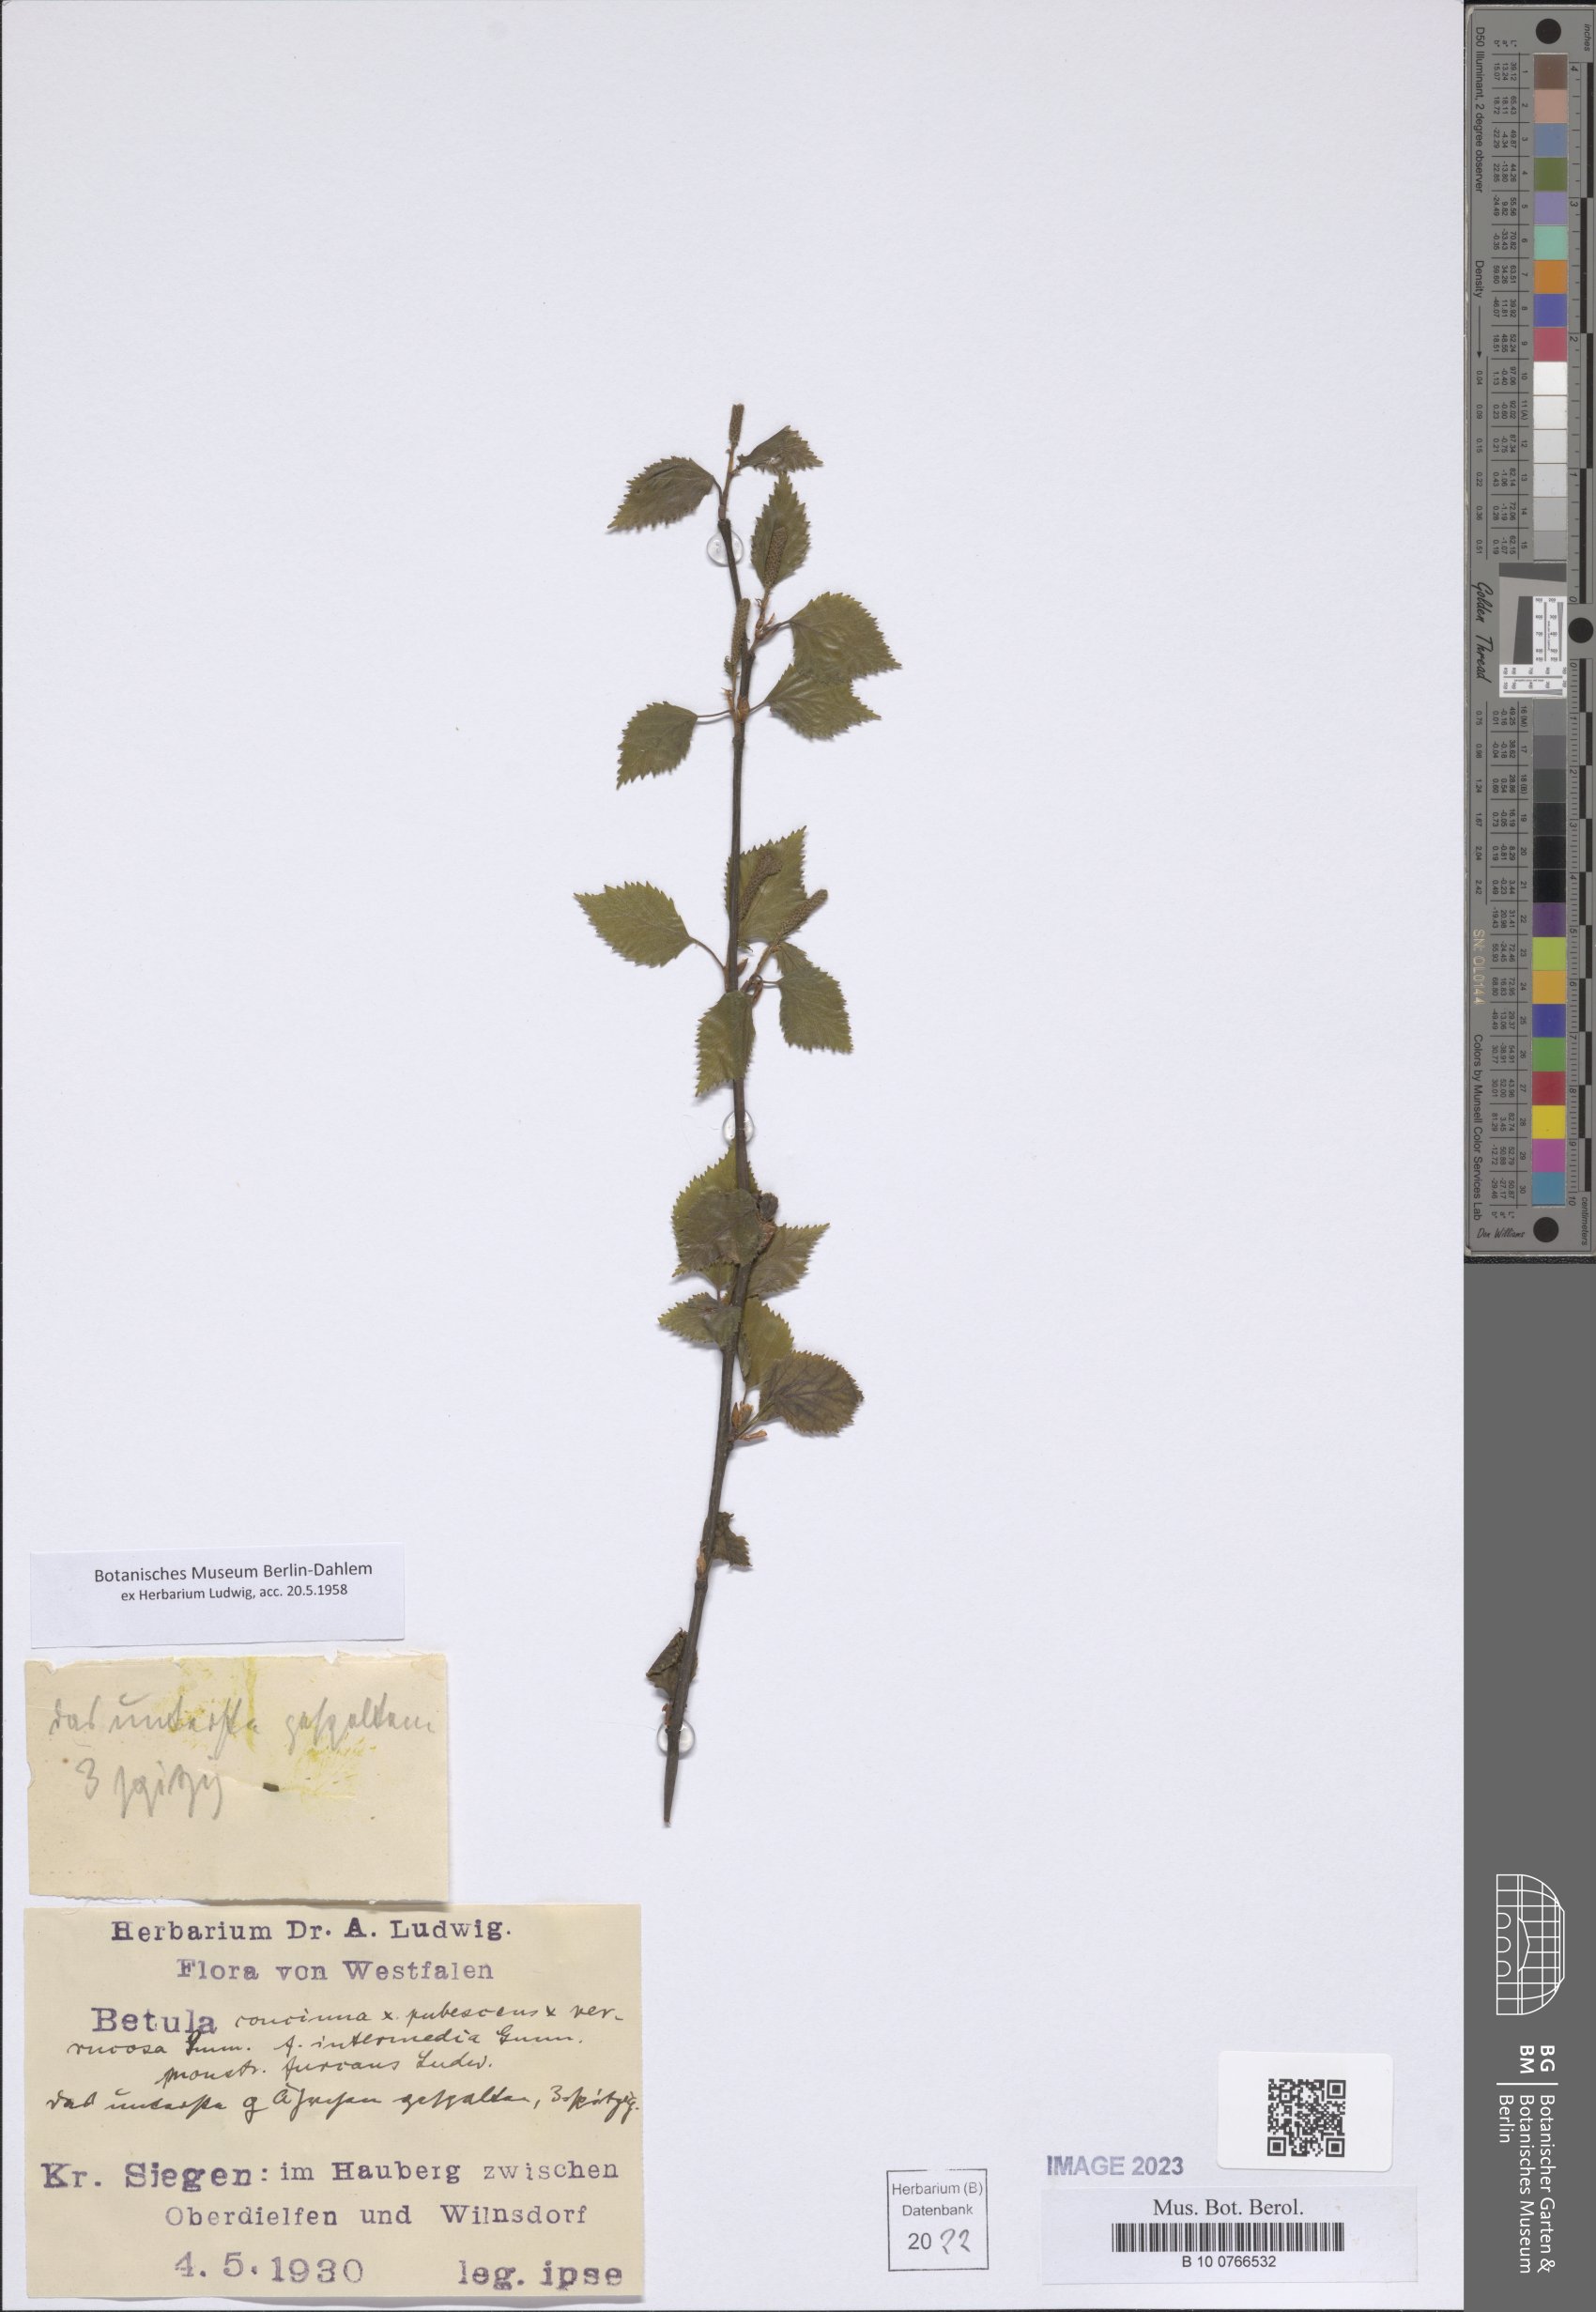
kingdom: Plantae
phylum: Tracheophyta
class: Magnoliopsida
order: Fagales
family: Betulaceae
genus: Betula
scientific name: Betula
